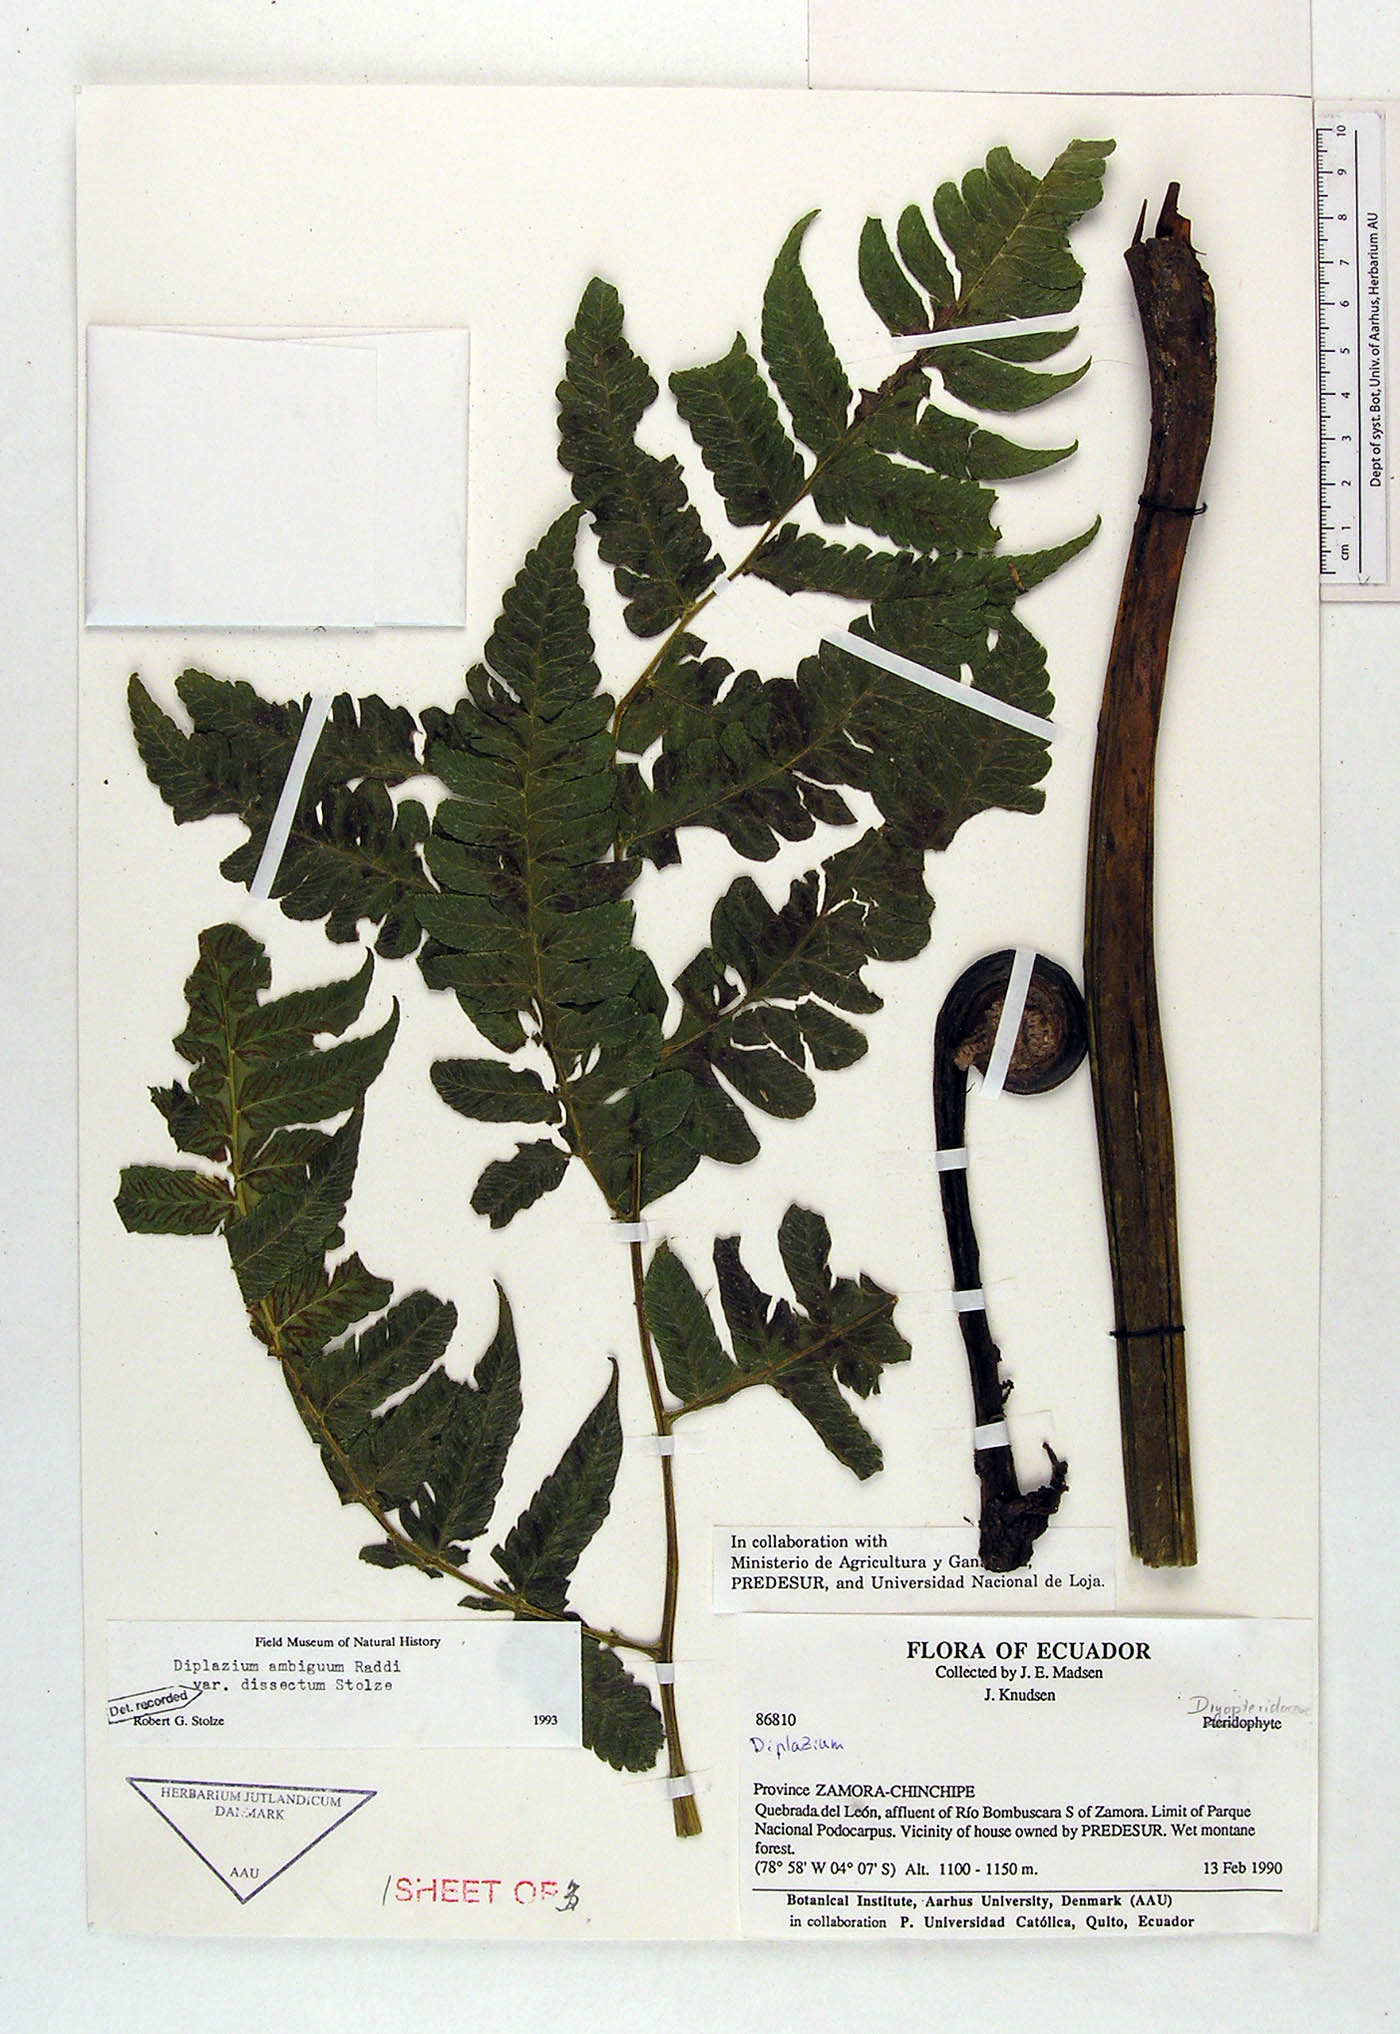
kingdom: Plantae
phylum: Tracheophyta
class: Polypodiopsida
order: Polypodiales
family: Athyriaceae
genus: Diplazium
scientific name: Diplazium ambiguum
